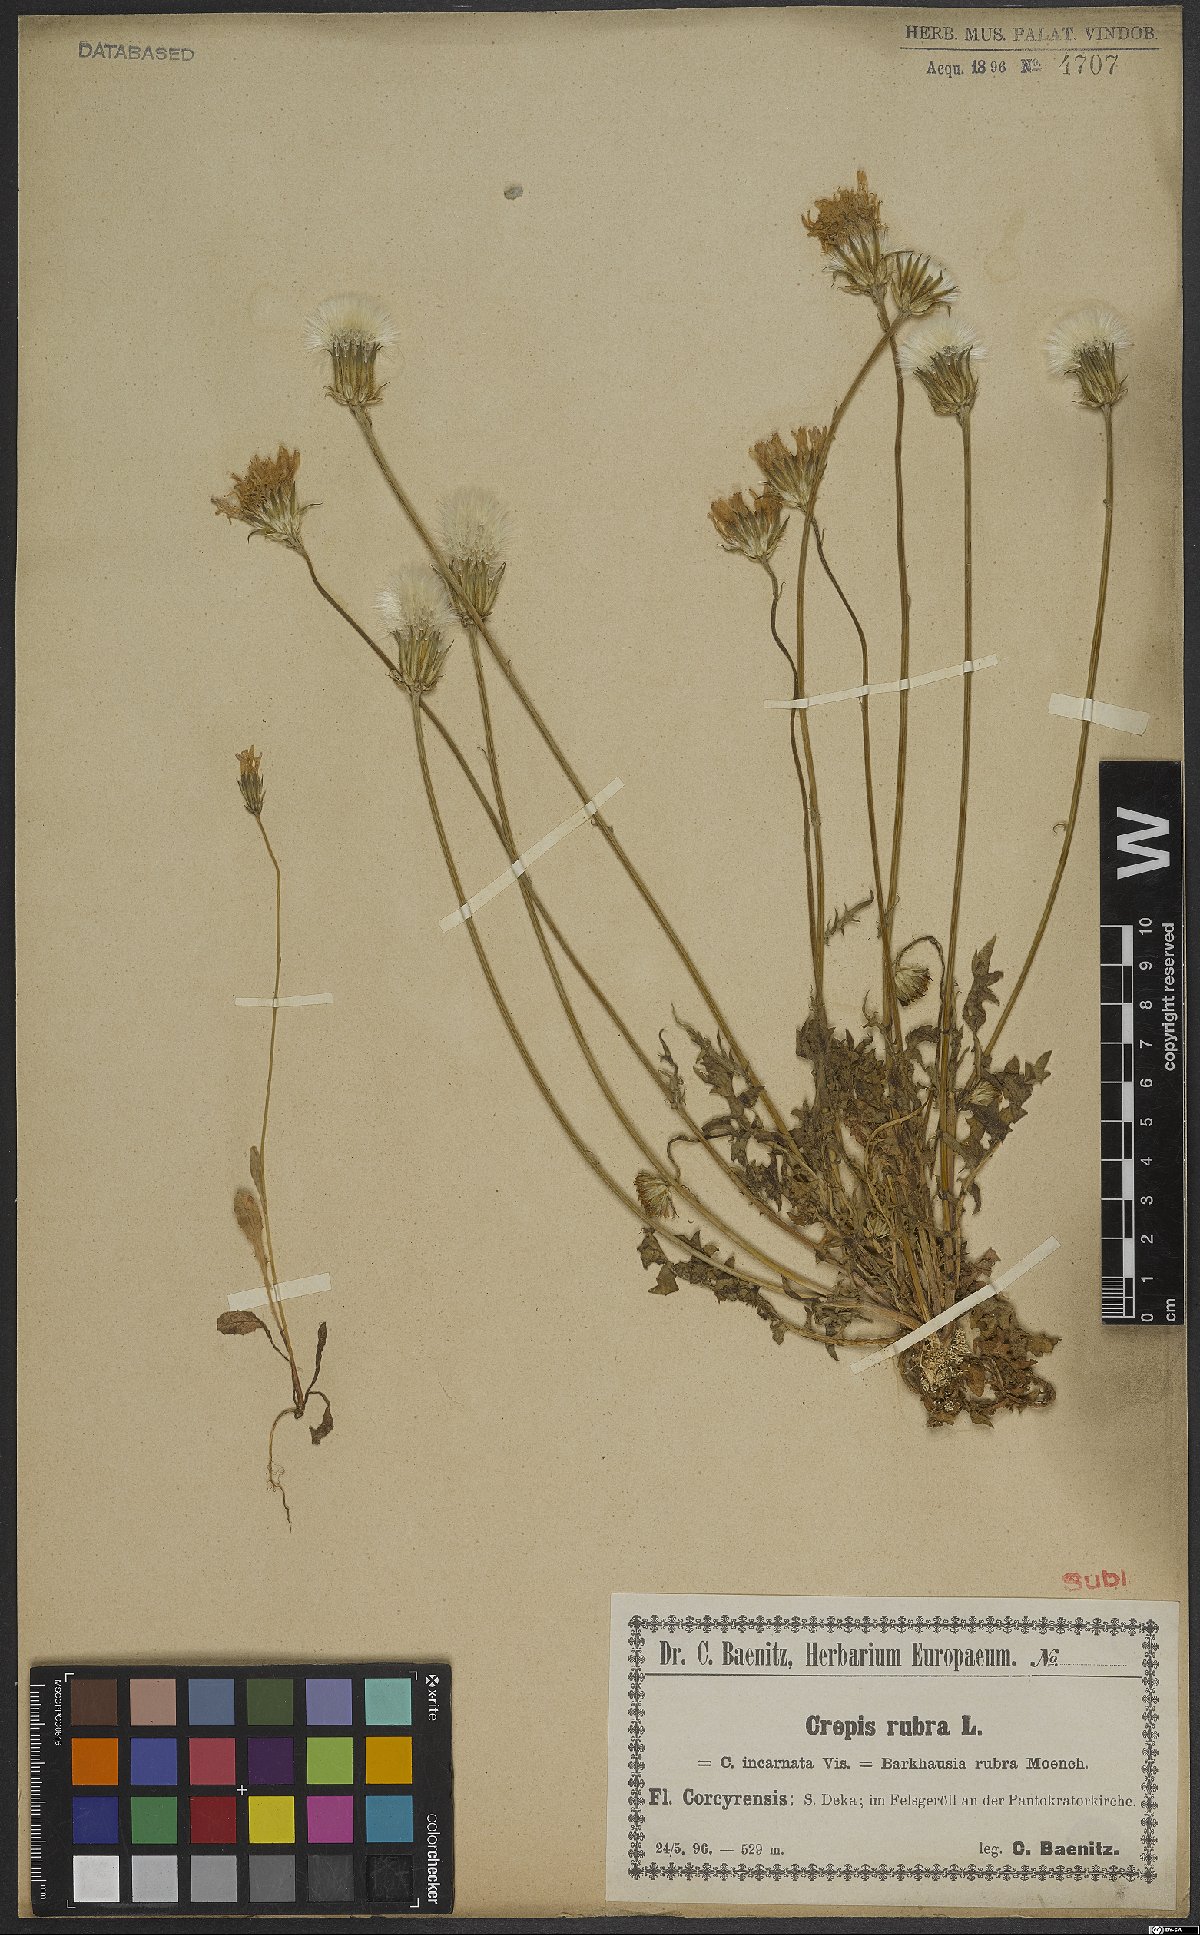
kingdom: Plantae
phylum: Tracheophyta
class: Magnoliopsida
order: Asterales
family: Asteraceae
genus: Crepis
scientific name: Crepis rubra
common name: Pink hawk's-beard
